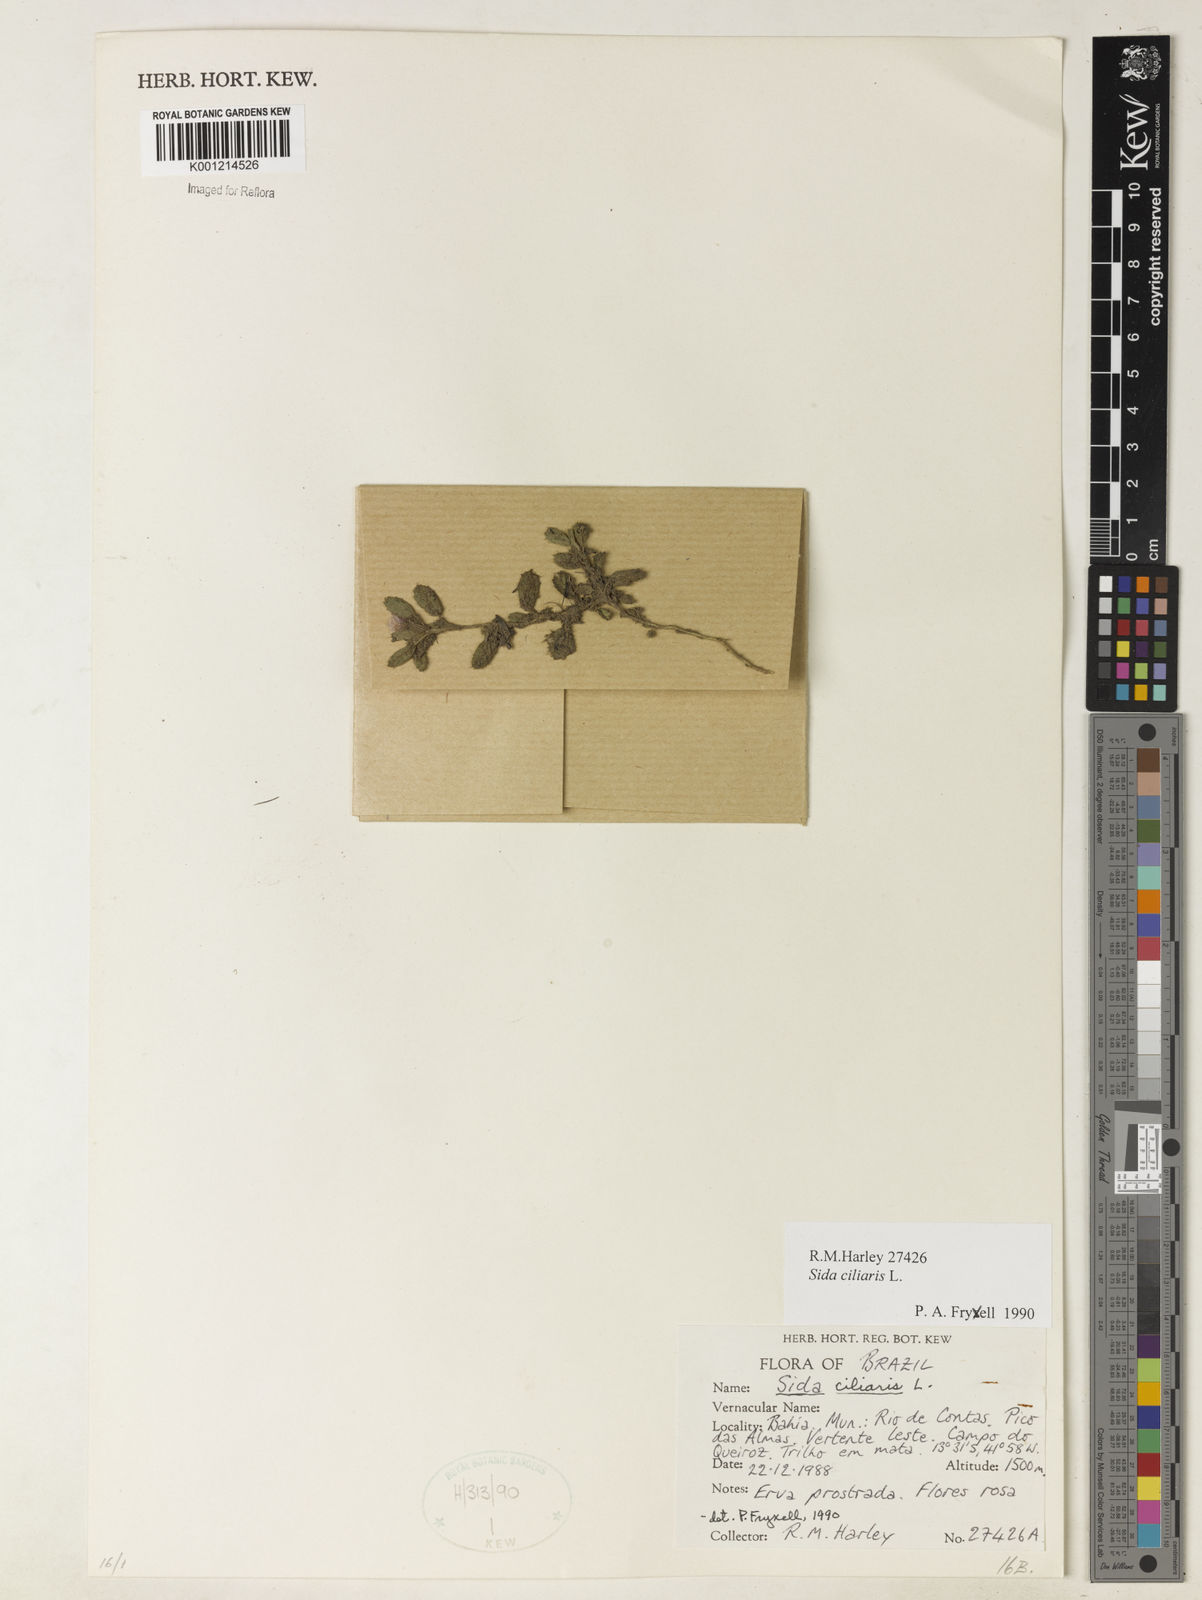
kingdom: Plantae
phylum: Tracheophyta
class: Magnoliopsida
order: Malvales
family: Malvaceae
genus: Sida
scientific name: Sida ciliaris
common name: Bracted fanpetals
